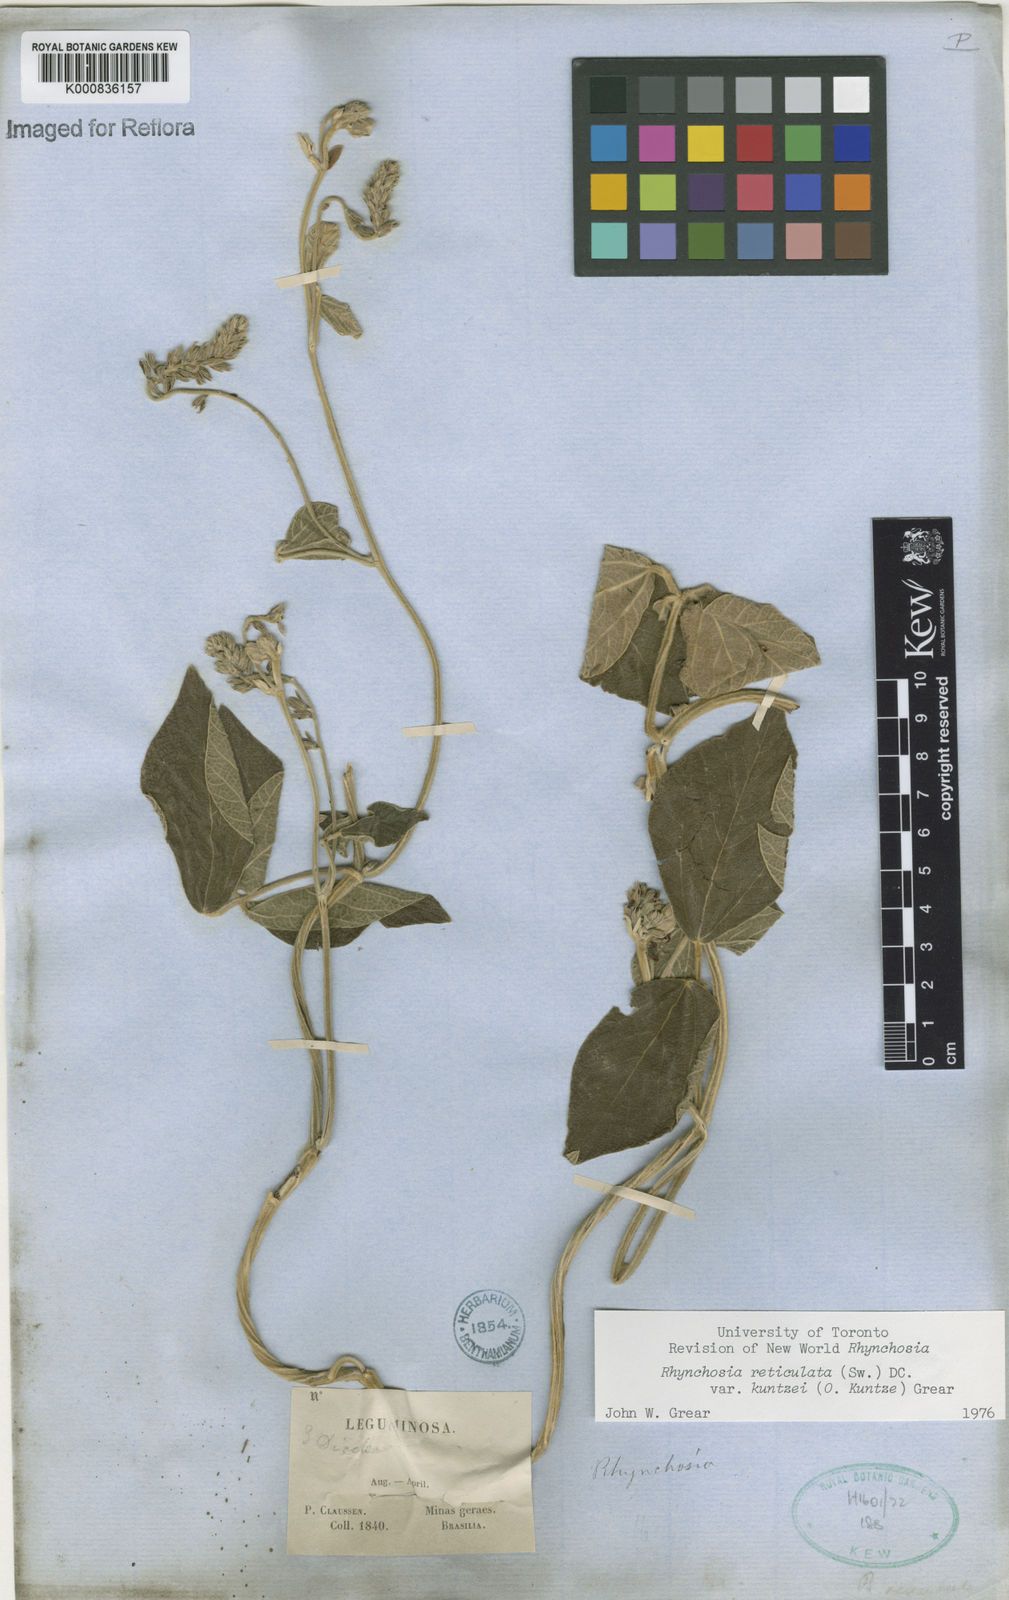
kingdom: Plantae
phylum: Tracheophyta
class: Magnoliopsida
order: Fabales
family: Fabaceae
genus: Rhynchosia
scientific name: Rhynchosia reticulata
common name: Pea withe
